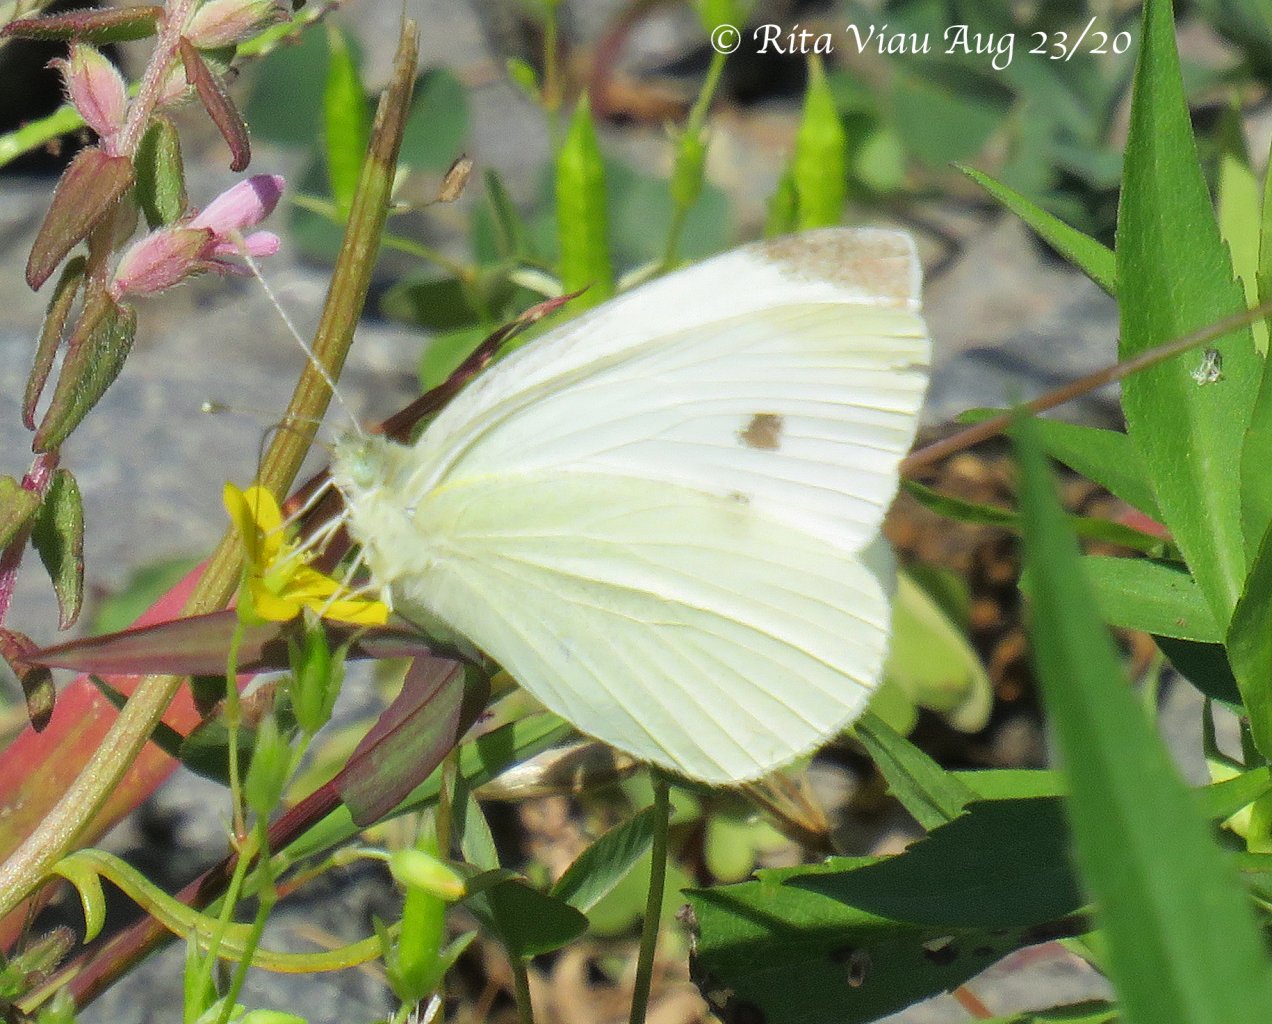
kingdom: Animalia
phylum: Arthropoda
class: Insecta
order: Lepidoptera
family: Pieridae
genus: Pieris
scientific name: Pieris rapae
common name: Cabbage White
